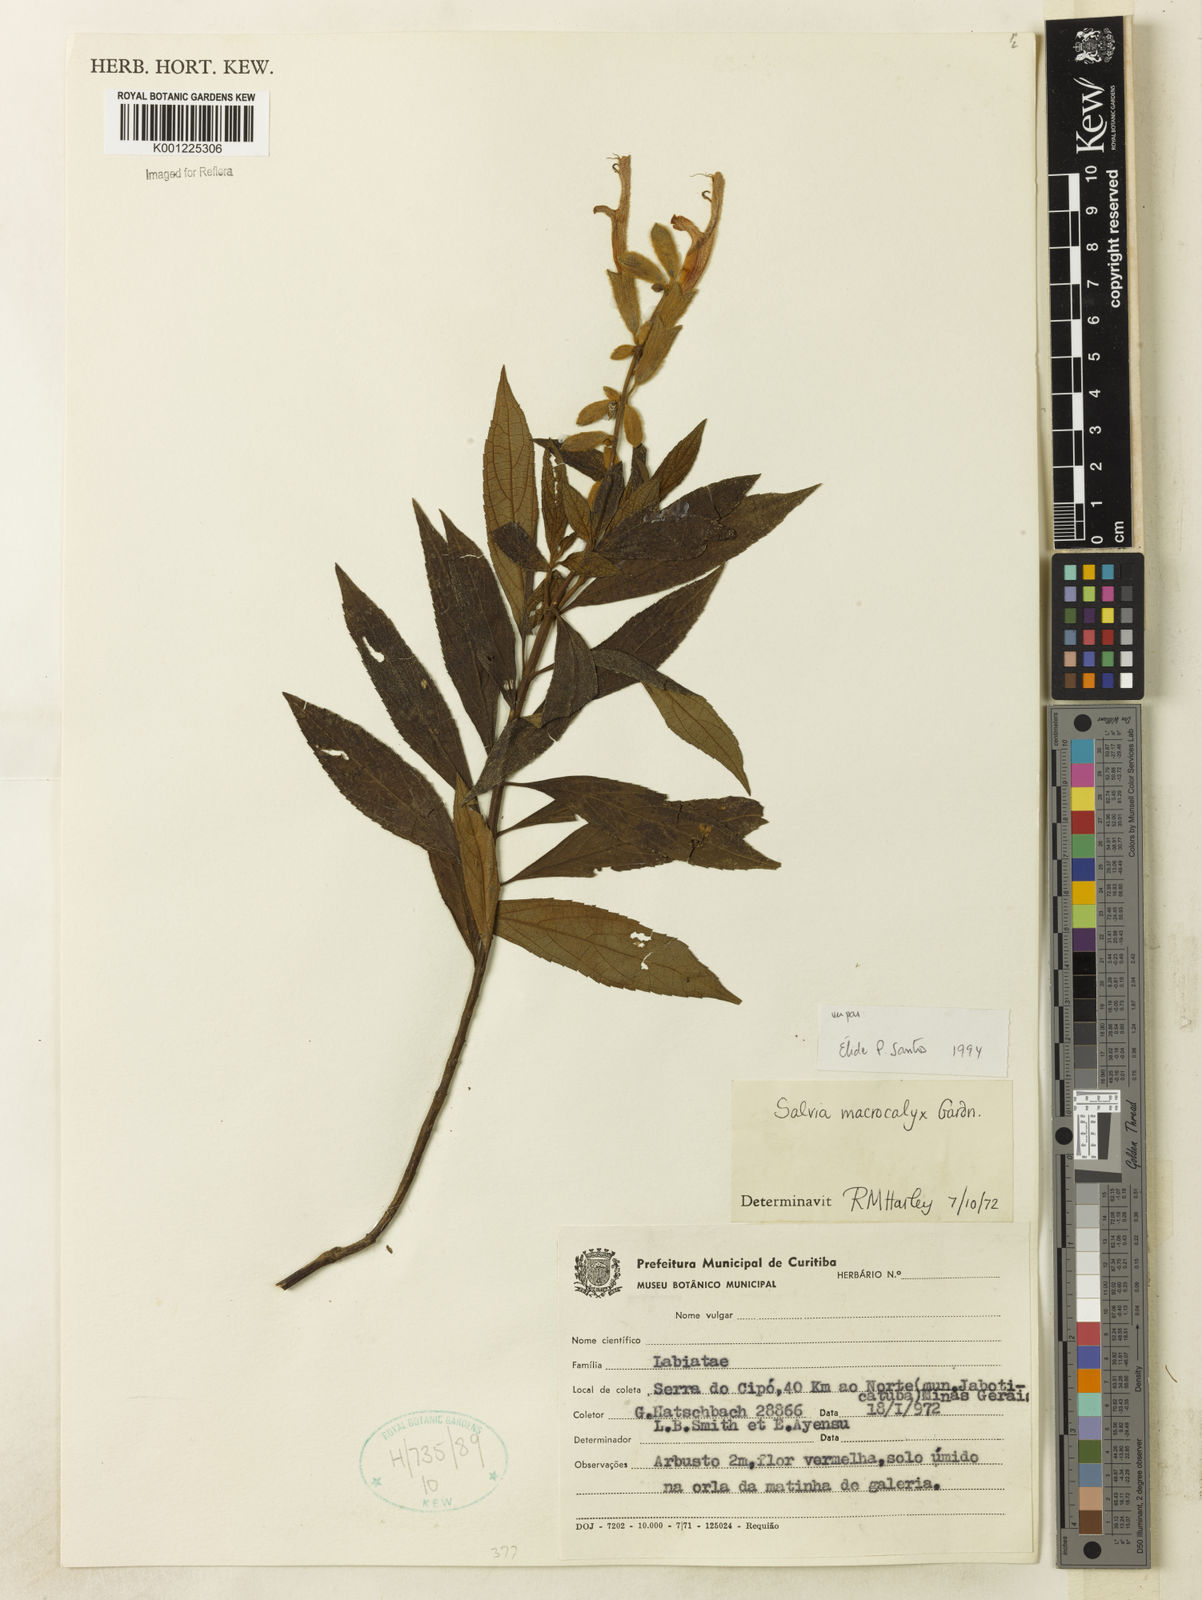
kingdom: Plantae
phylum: Tracheophyta
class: Magnoliopsida
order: Lamiales
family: Lamiaceae
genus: Salvia
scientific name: Salvia macrocalyx
